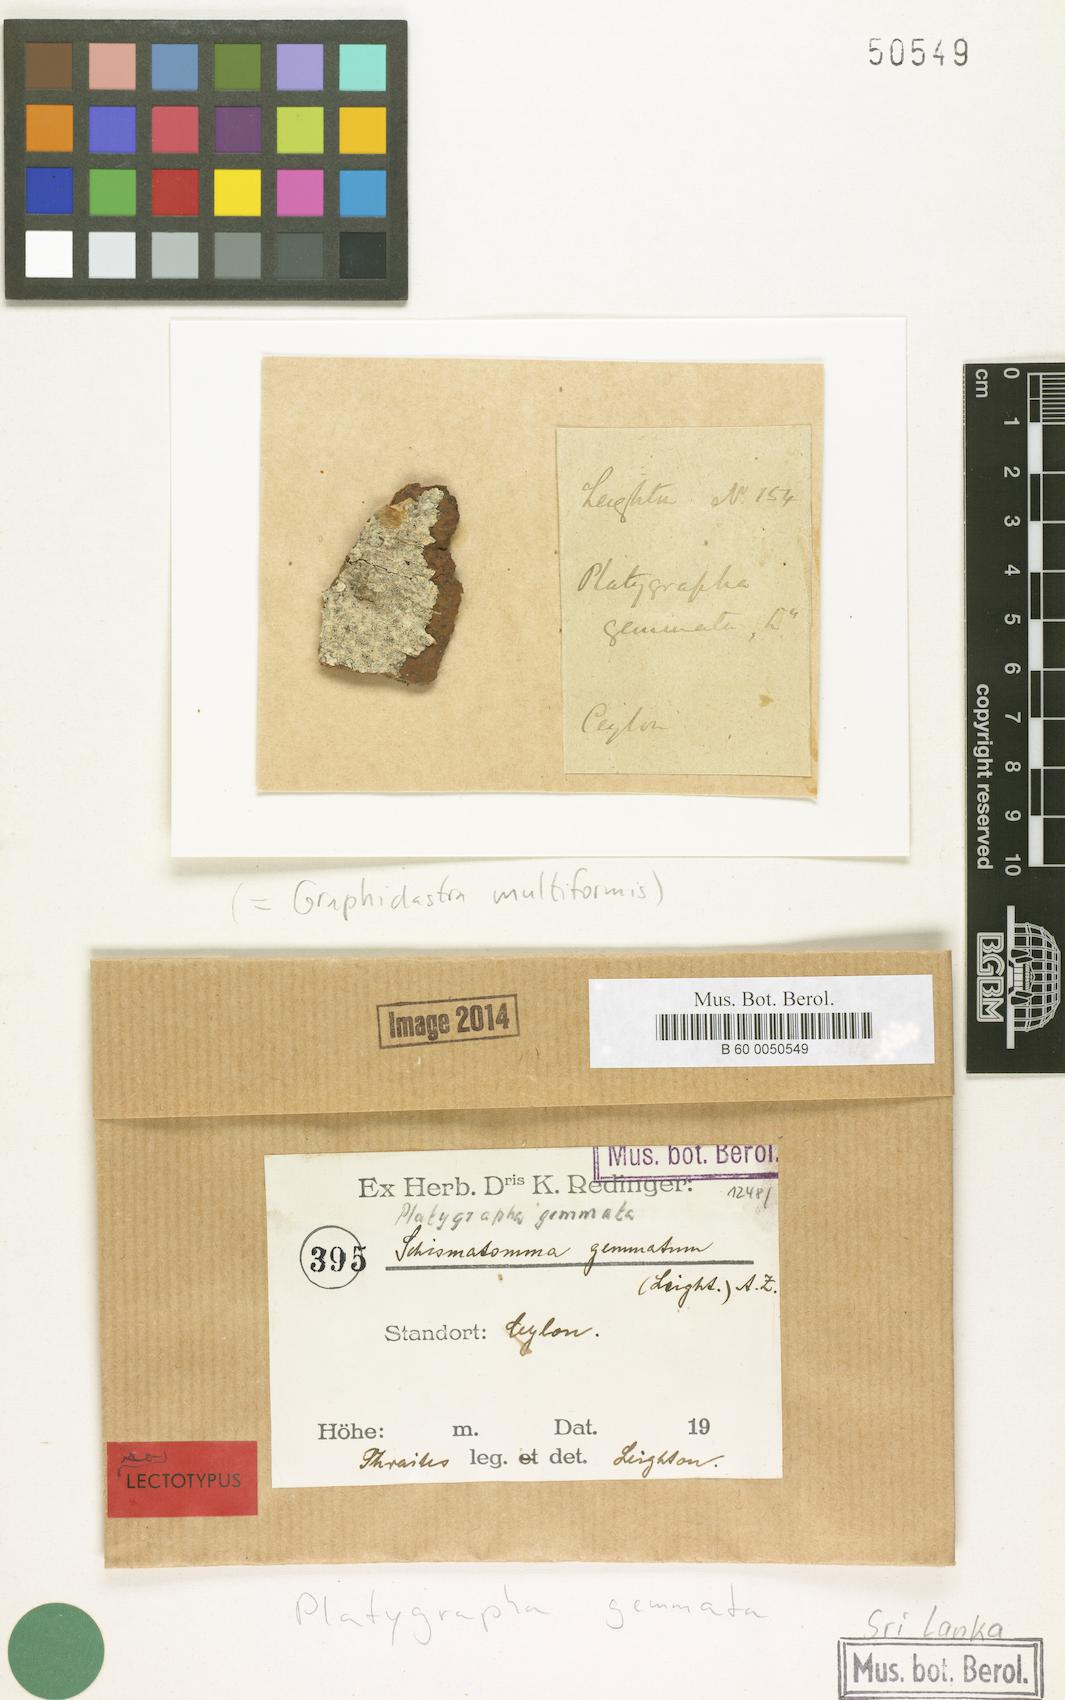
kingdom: Fungi
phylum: Ascomycota
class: Arthoniomycetes
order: Arthoniales
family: Roccellaceae
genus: Graphidastra
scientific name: Graphidastra multiformis
